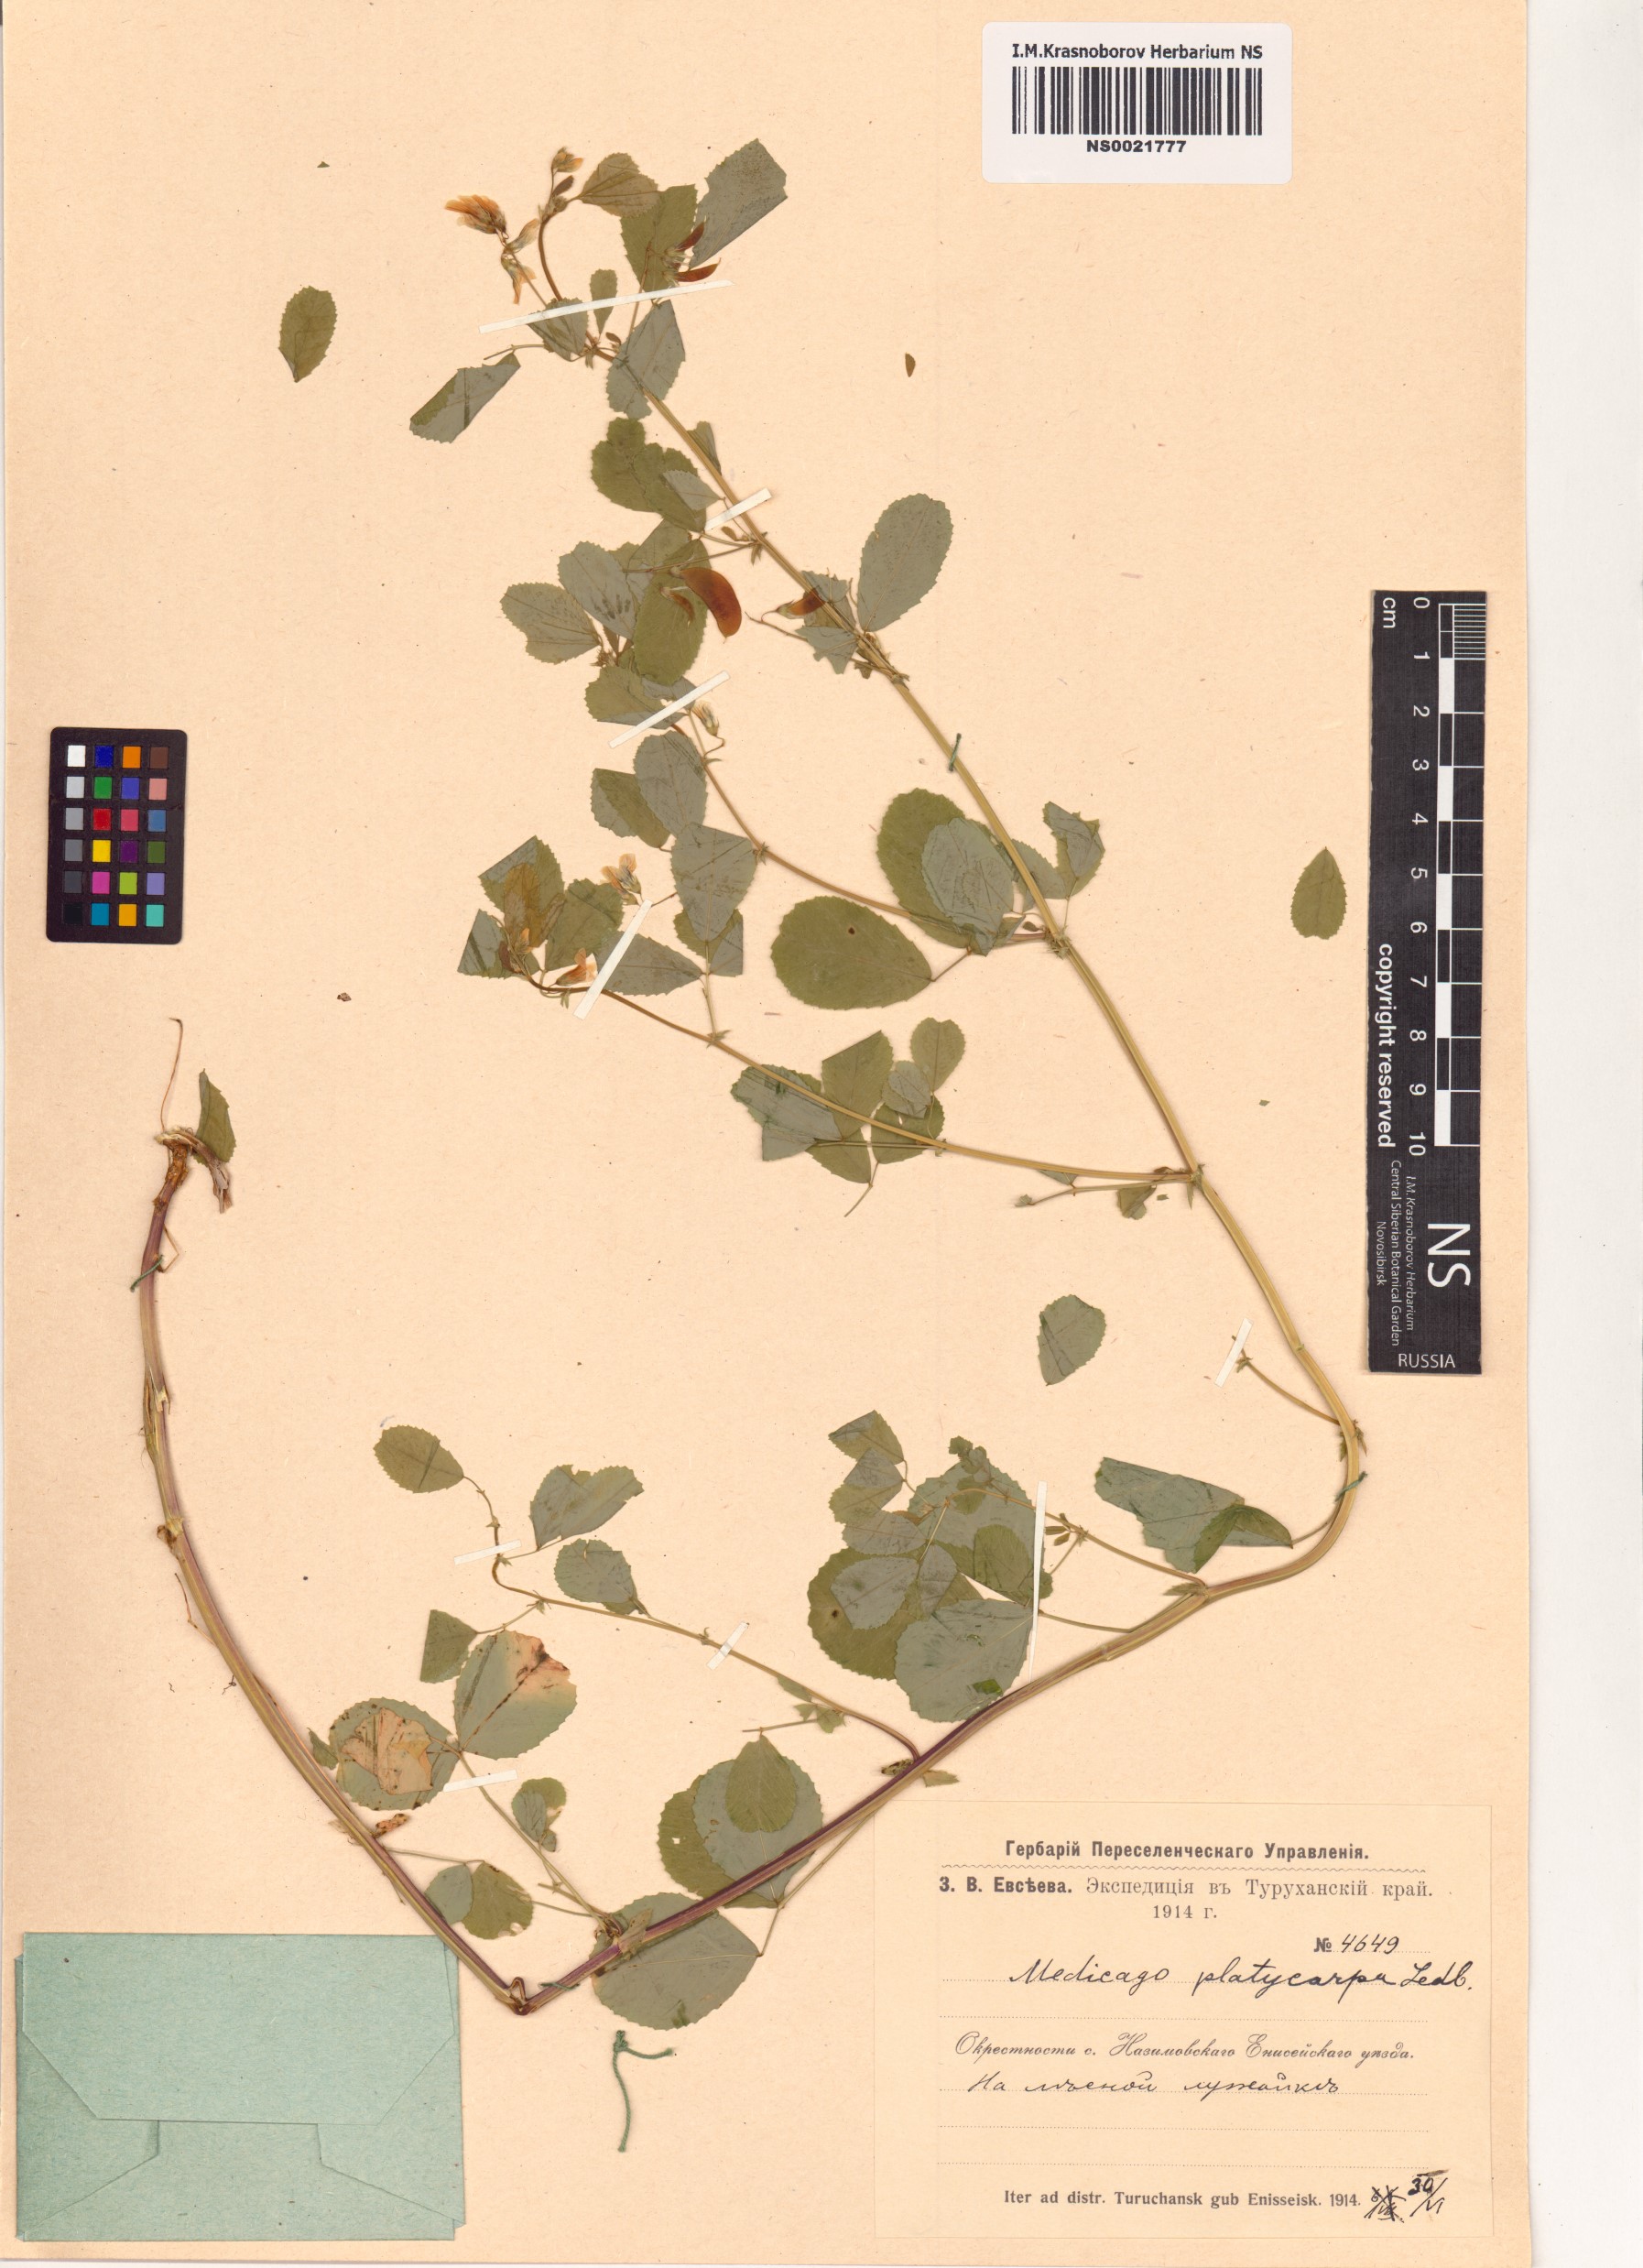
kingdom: Plantae
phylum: Tracheophyta
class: Magnoliopsida
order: Fabales
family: Fabaceae
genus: Medicago
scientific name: Medicago platycarpos
